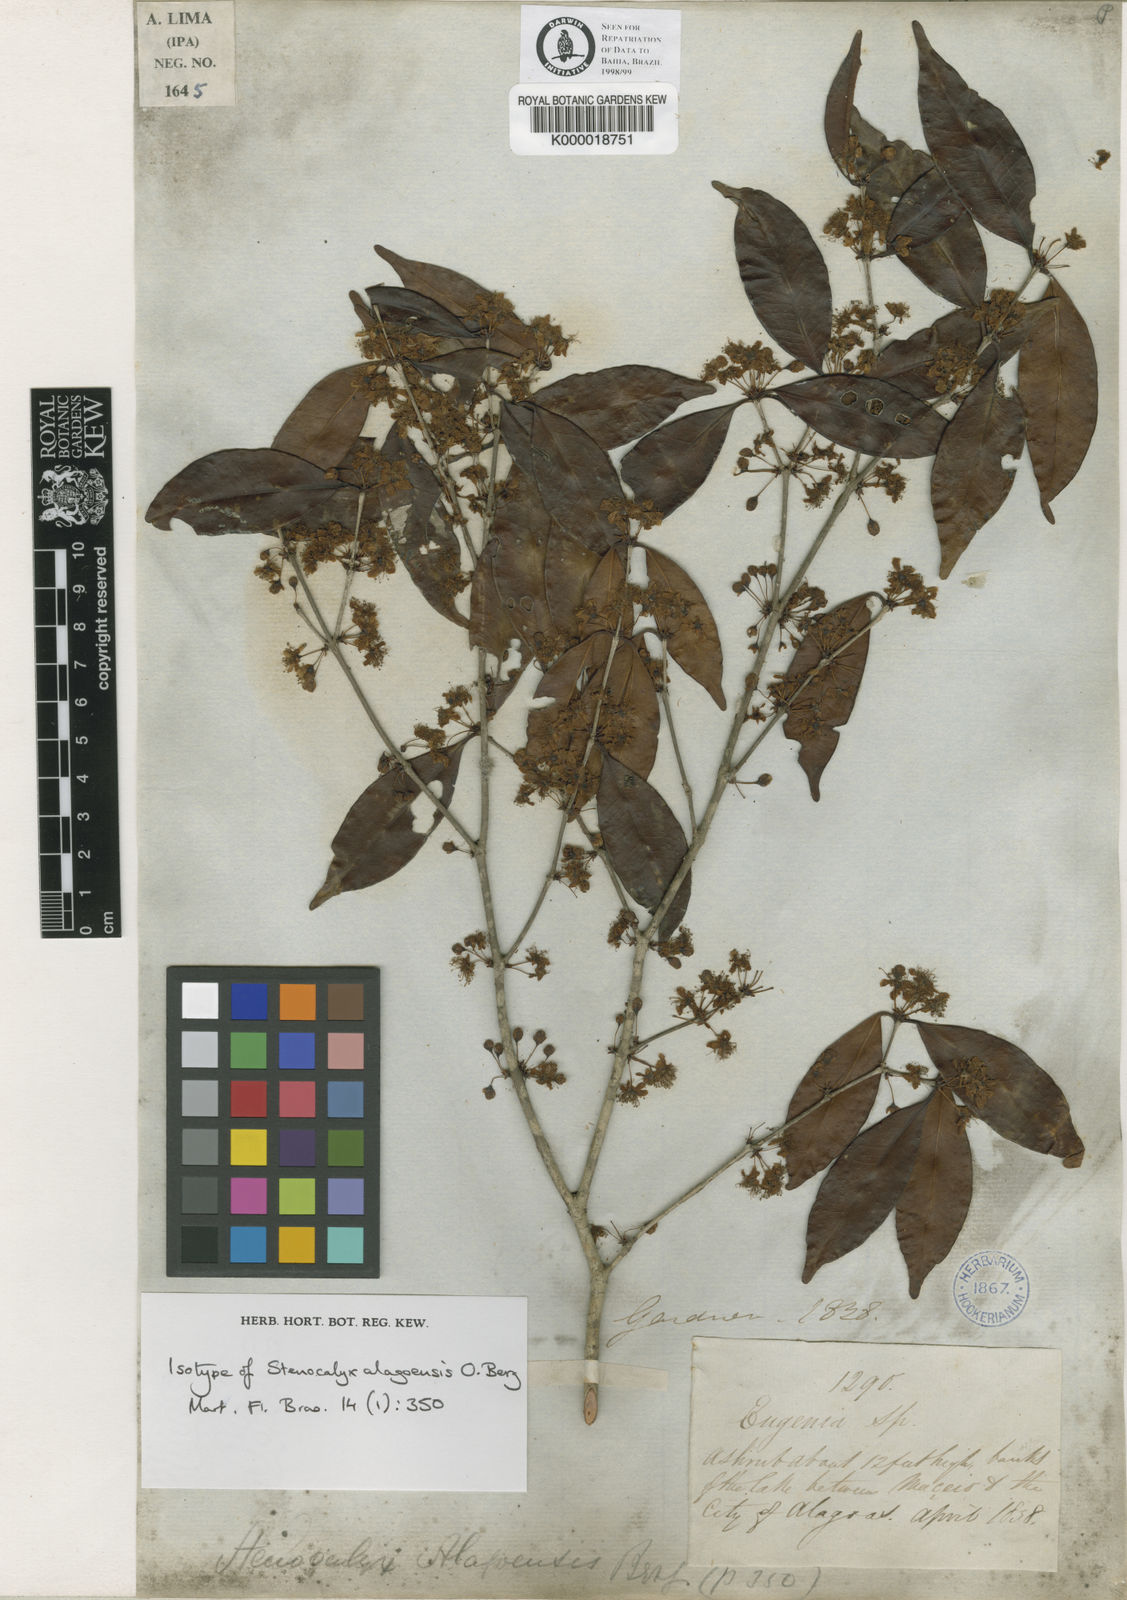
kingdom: Plantae
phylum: Tracheophyta
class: Magnoliopsida
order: Myrtales
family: Myrtaceae
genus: Eugenia
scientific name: Eugenia alagoensis
